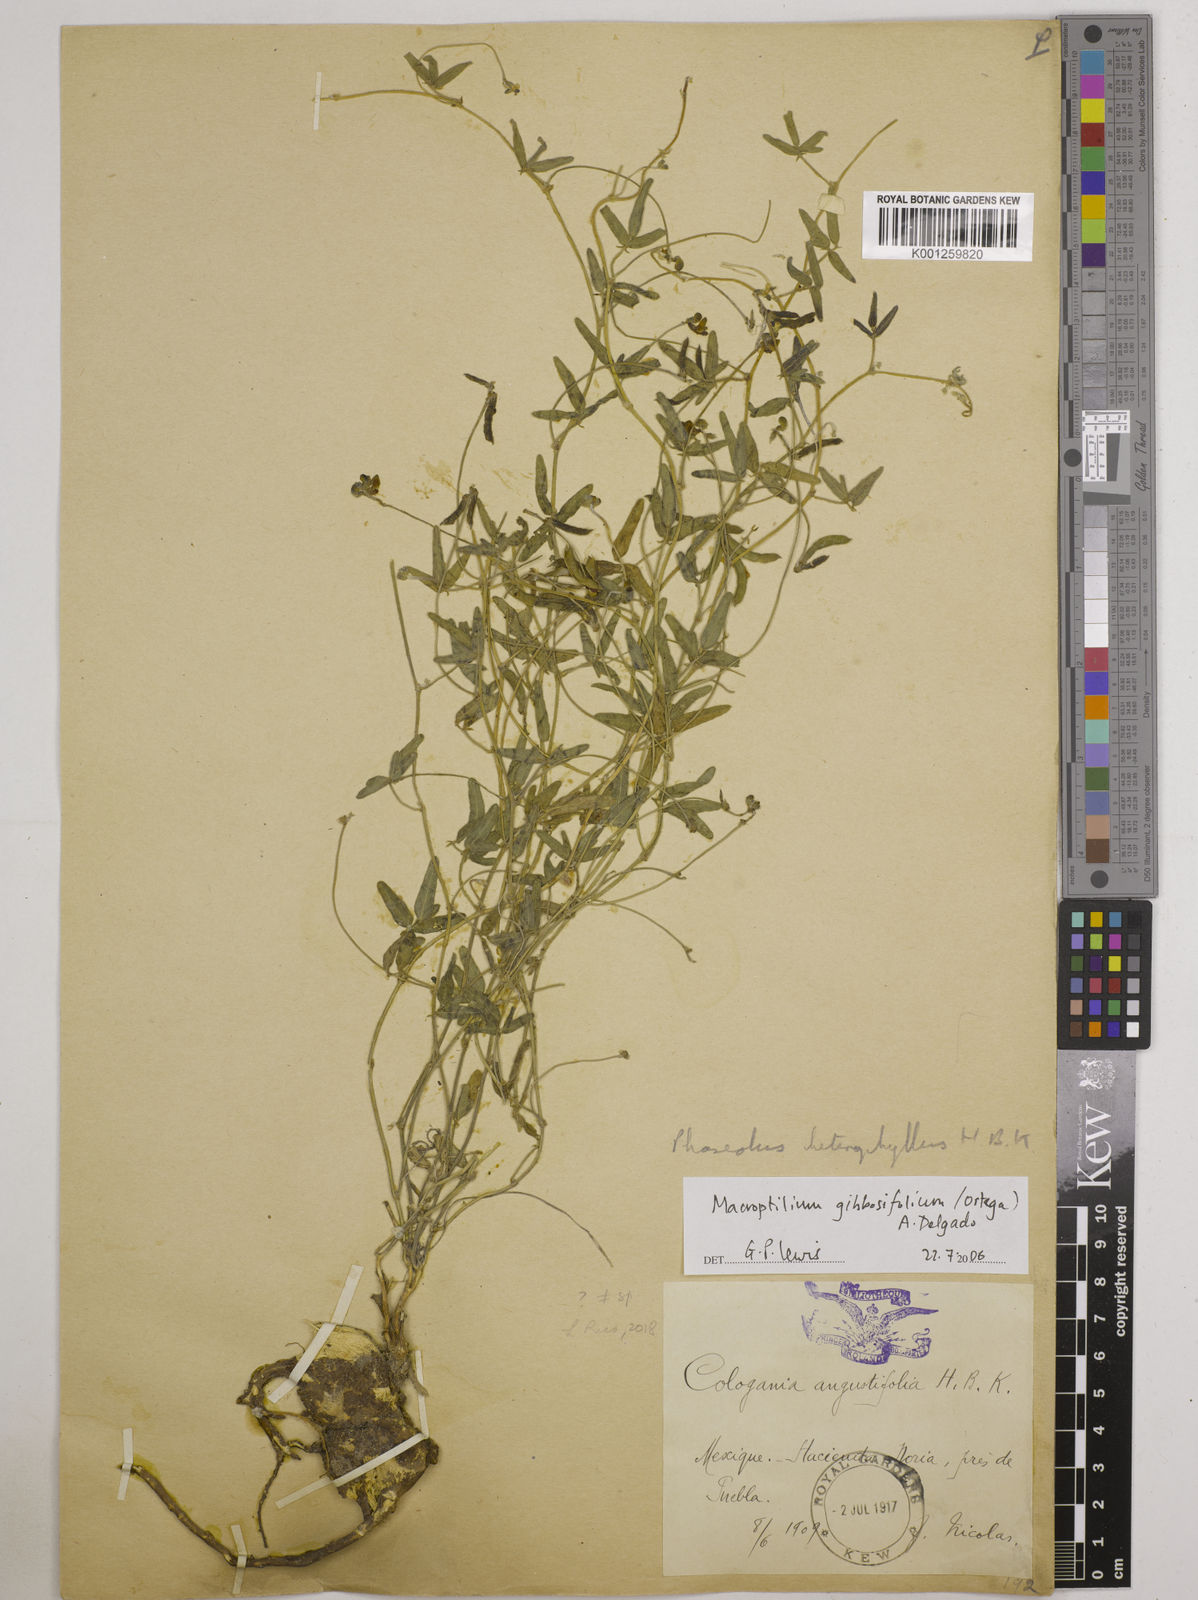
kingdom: Plantae
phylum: Tracheophyta
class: Magnoliopsida
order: Fabales
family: Fabaceae
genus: Macroptilium
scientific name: Macroptilium gibbosifolium
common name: Variableleaf bushbean
